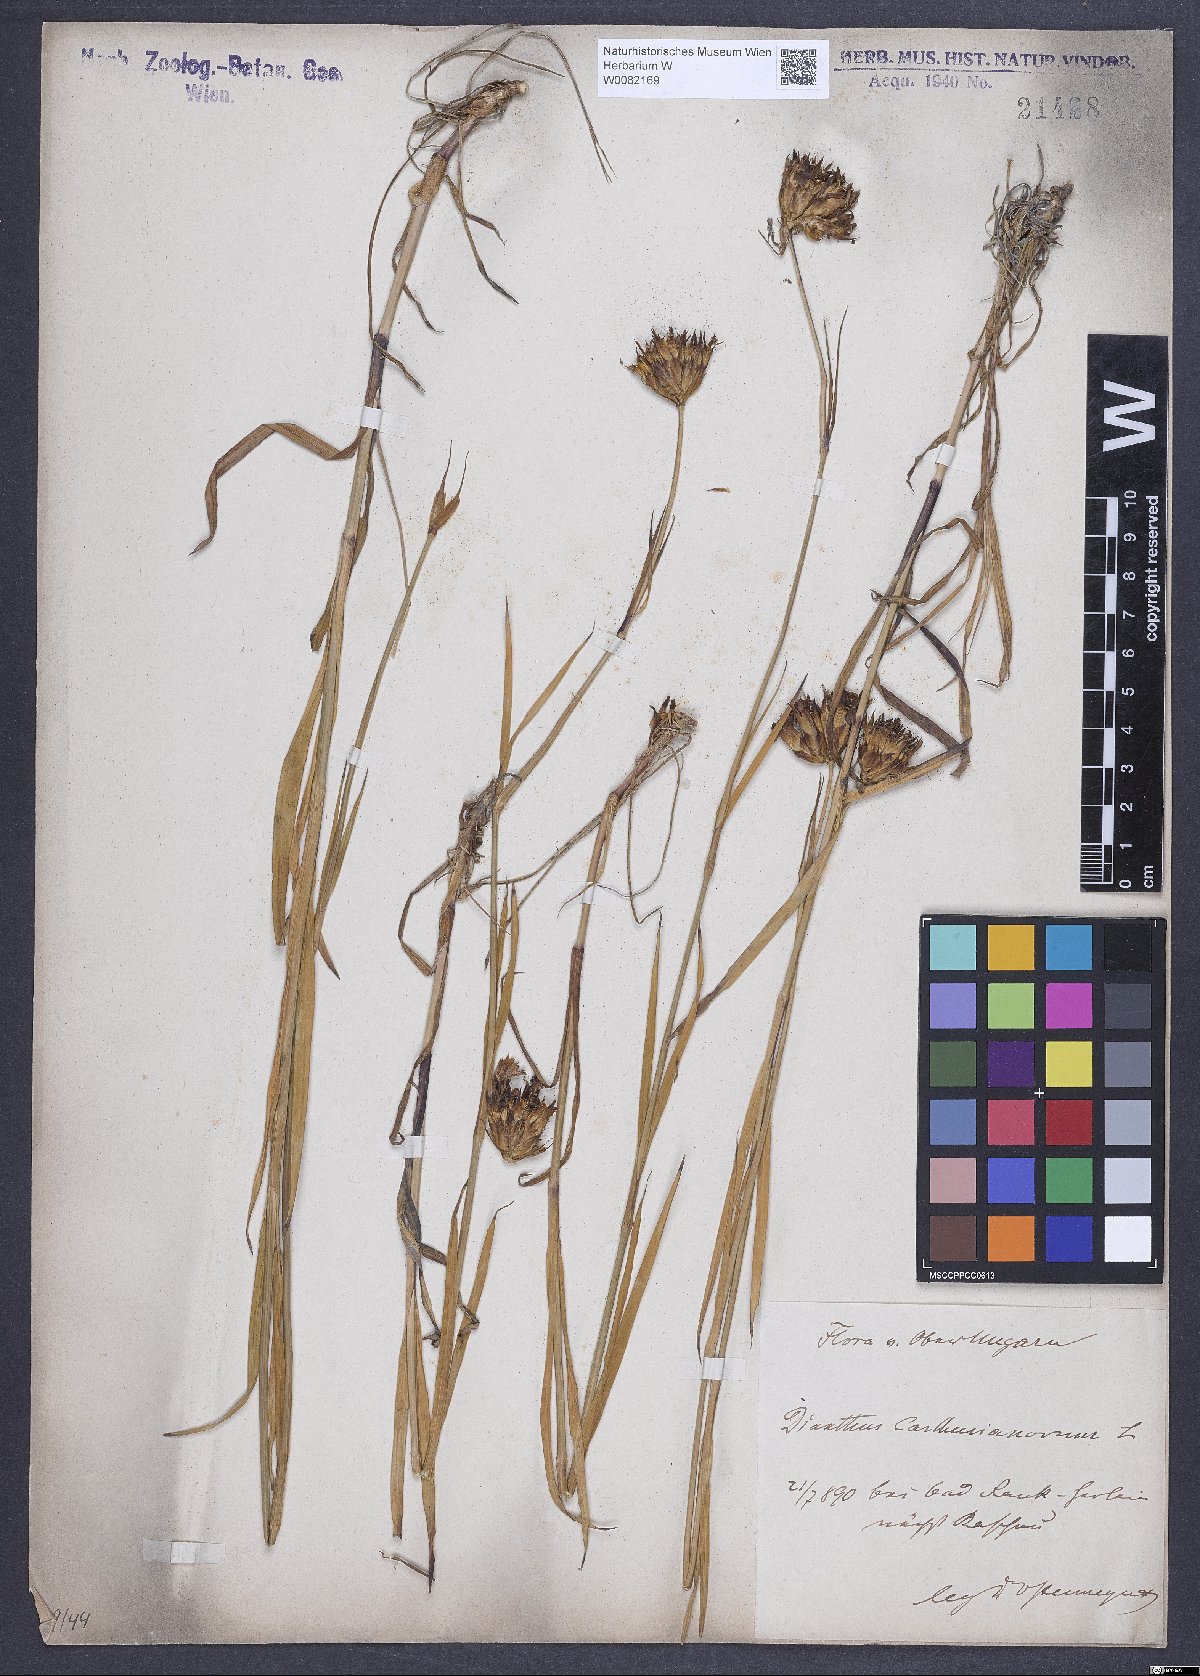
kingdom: Plantae
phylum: Tracheophyta
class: Magnoliopsida
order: Caryophyllales
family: Caryophyllaceae
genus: Dianthus
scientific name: Dianthus carthusianorum
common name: Carthusian pink
